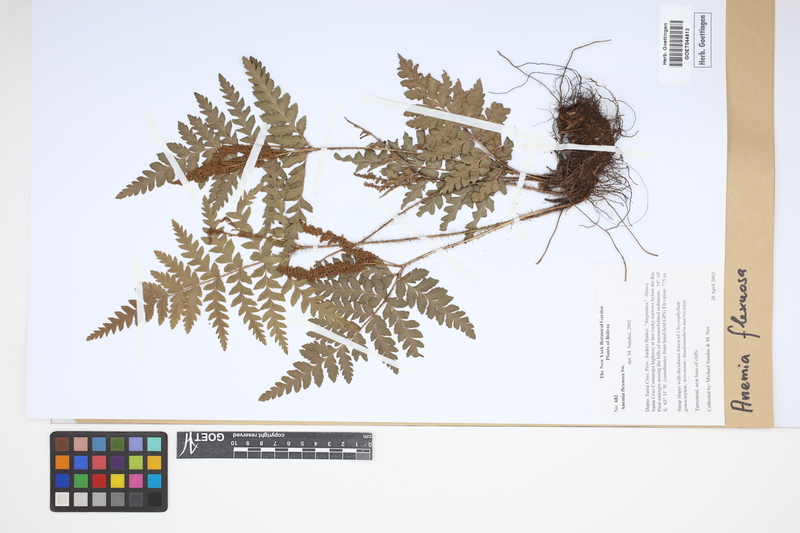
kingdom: Plantae
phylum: Tracheophyta
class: Polypodiopsida
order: Schizaeales
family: Anemiaceae
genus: Anemia
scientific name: Anemia flexuosa
